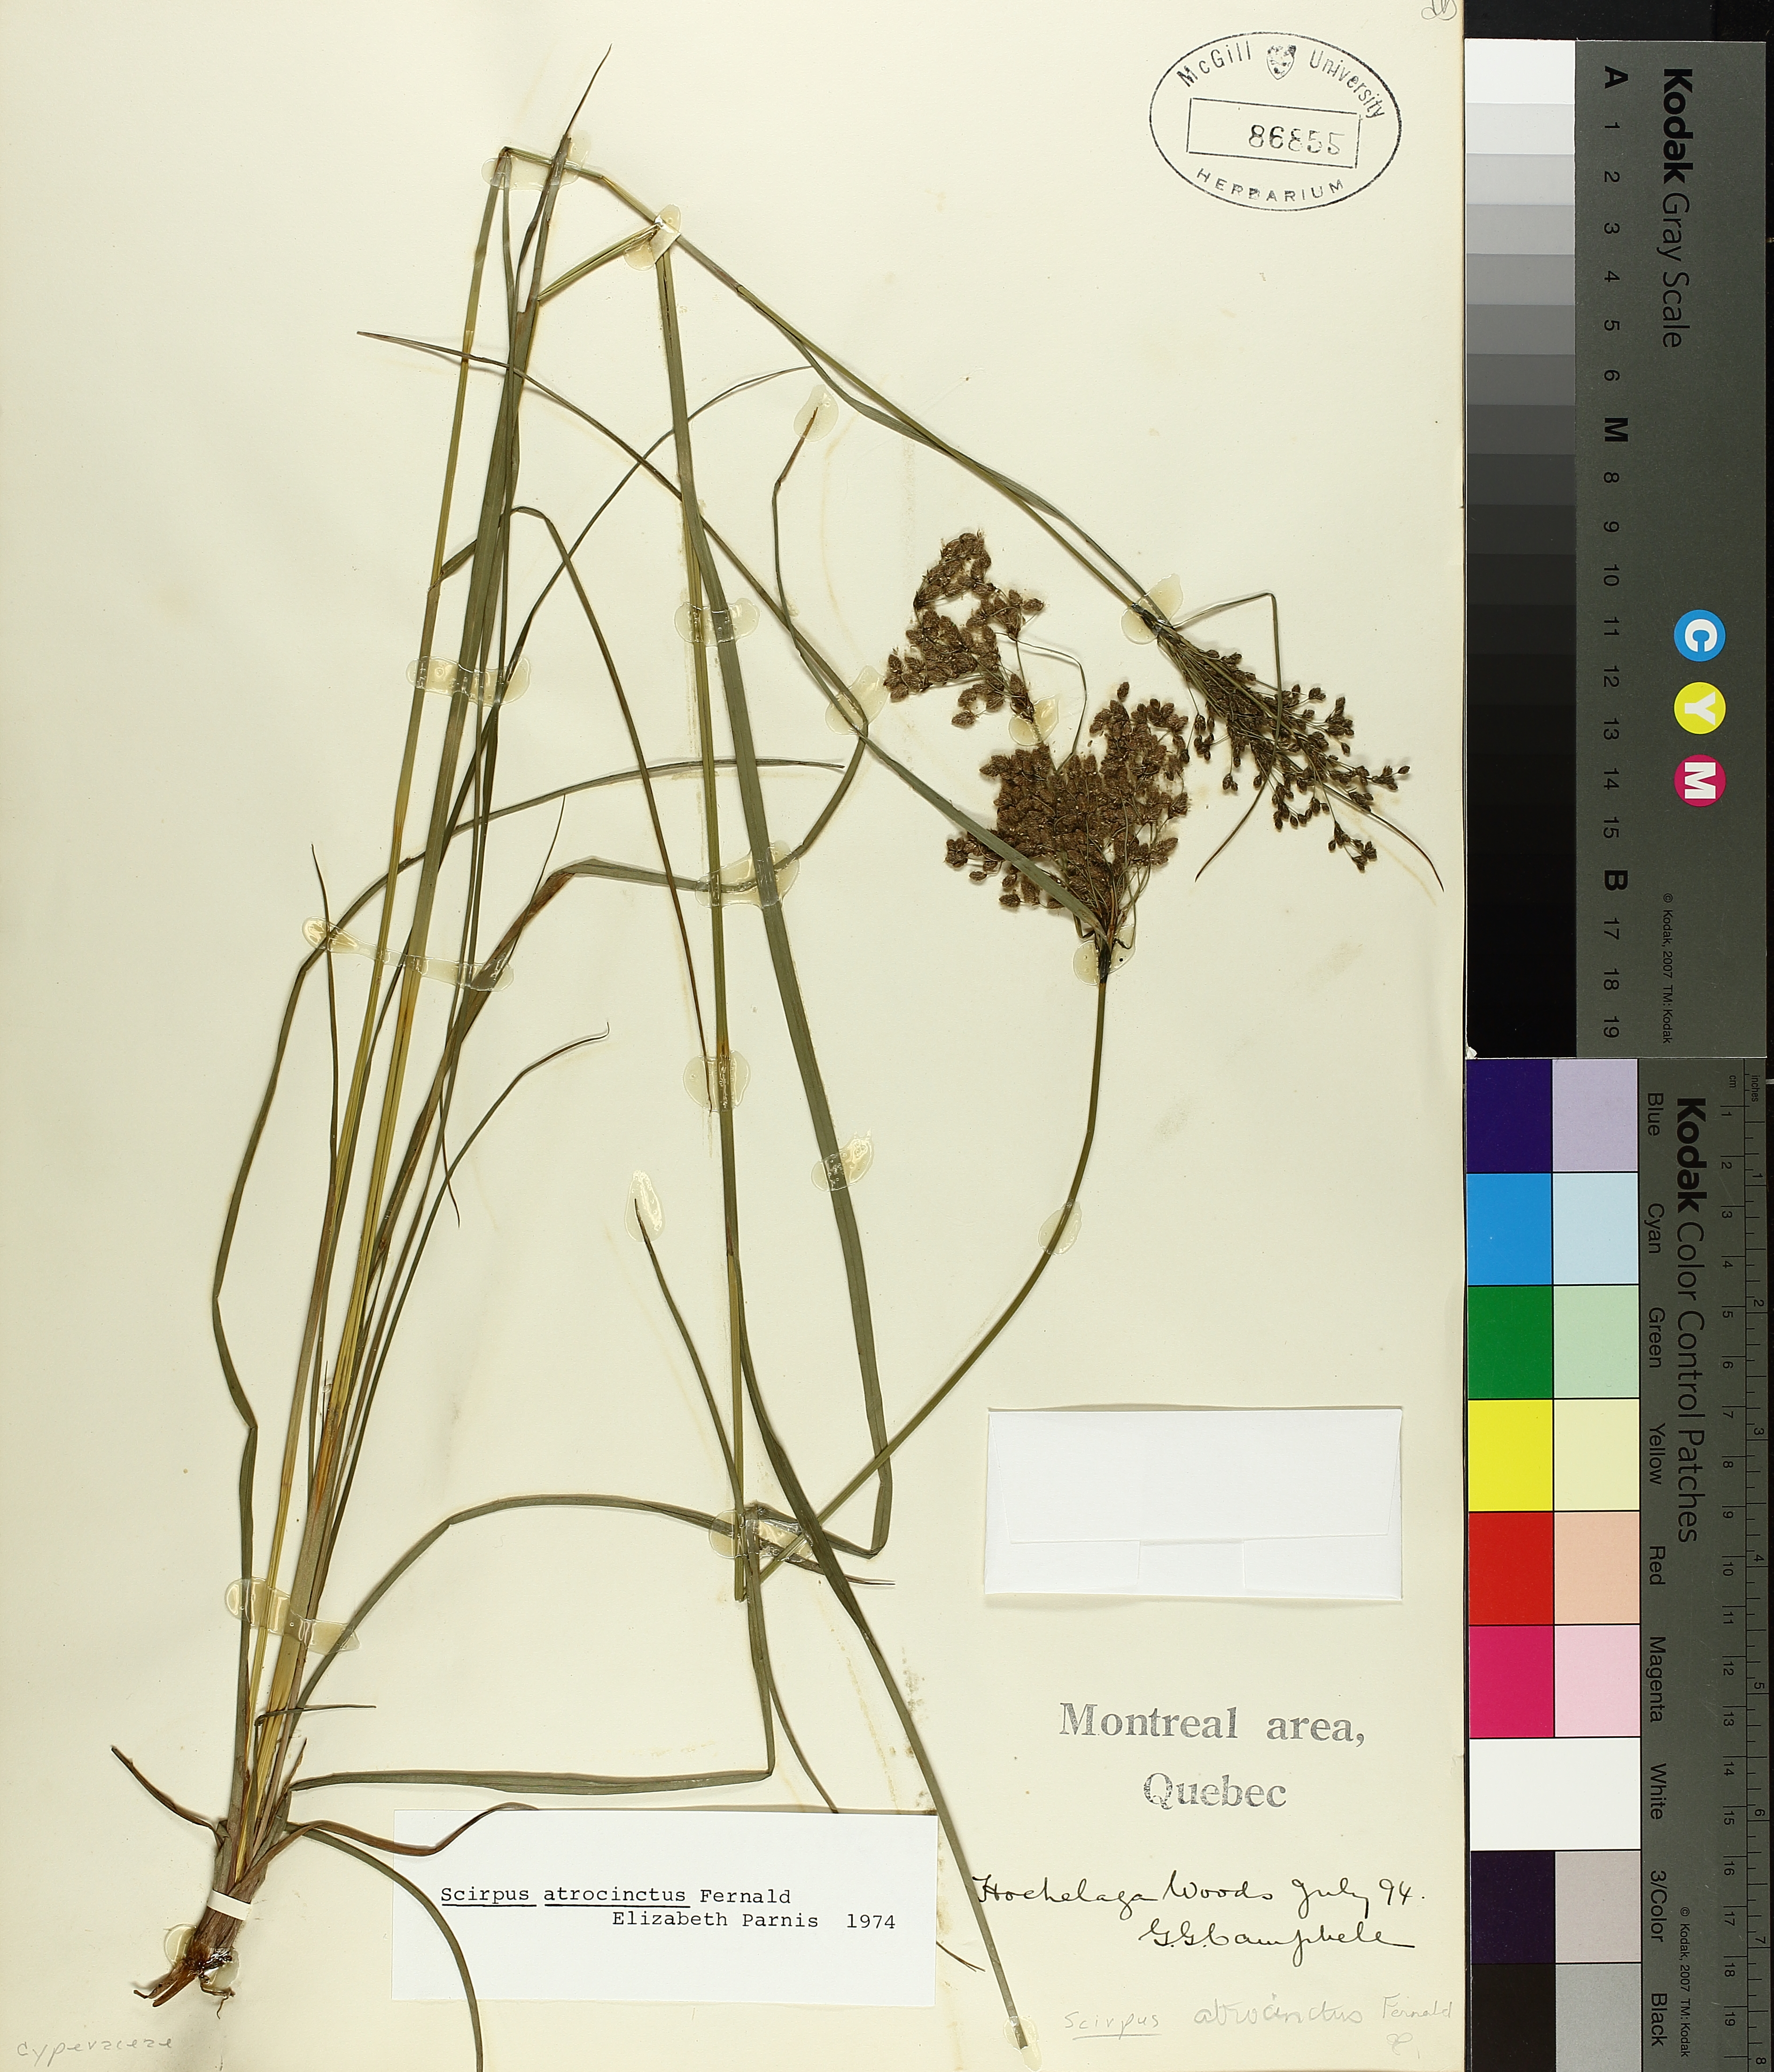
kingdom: Plantae
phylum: Tracheophyta
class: Liliopsida
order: Poales
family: Cyperaceae
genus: Scirpus
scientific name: Scirpus atrocinctus
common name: Black-girdled bulrush
